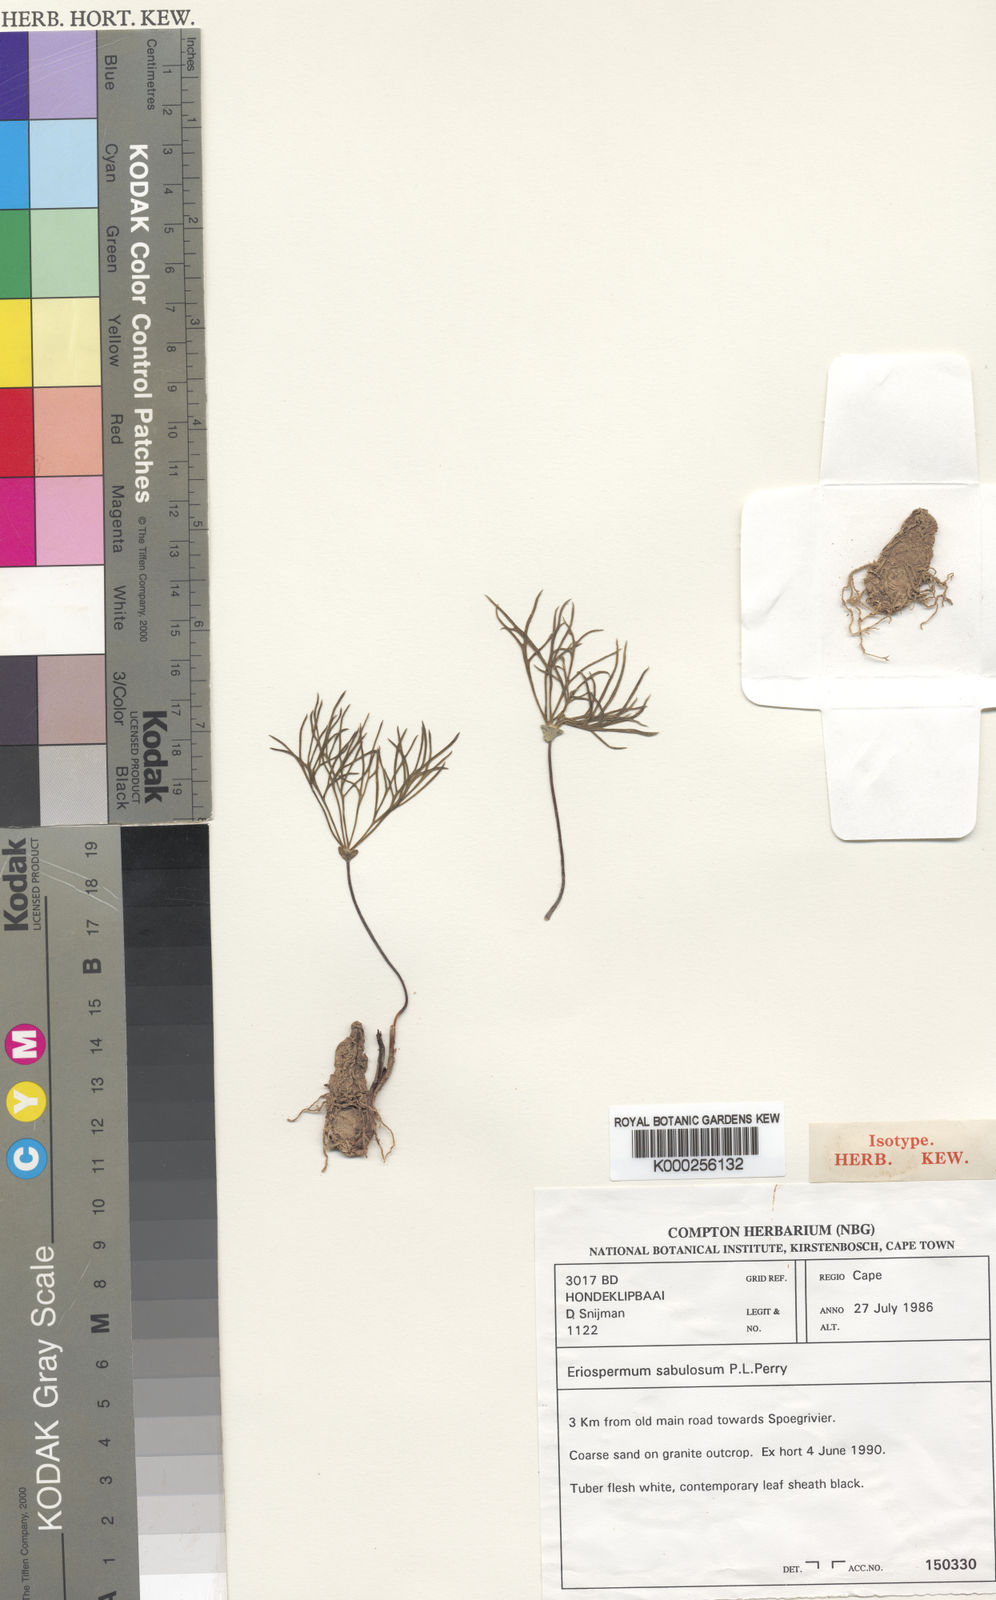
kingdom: Plantae
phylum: Tracheophyta
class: Liliopsida
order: Asparagales
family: Asparagaceae
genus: Eriospermum
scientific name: Eriospermum sabulosum
